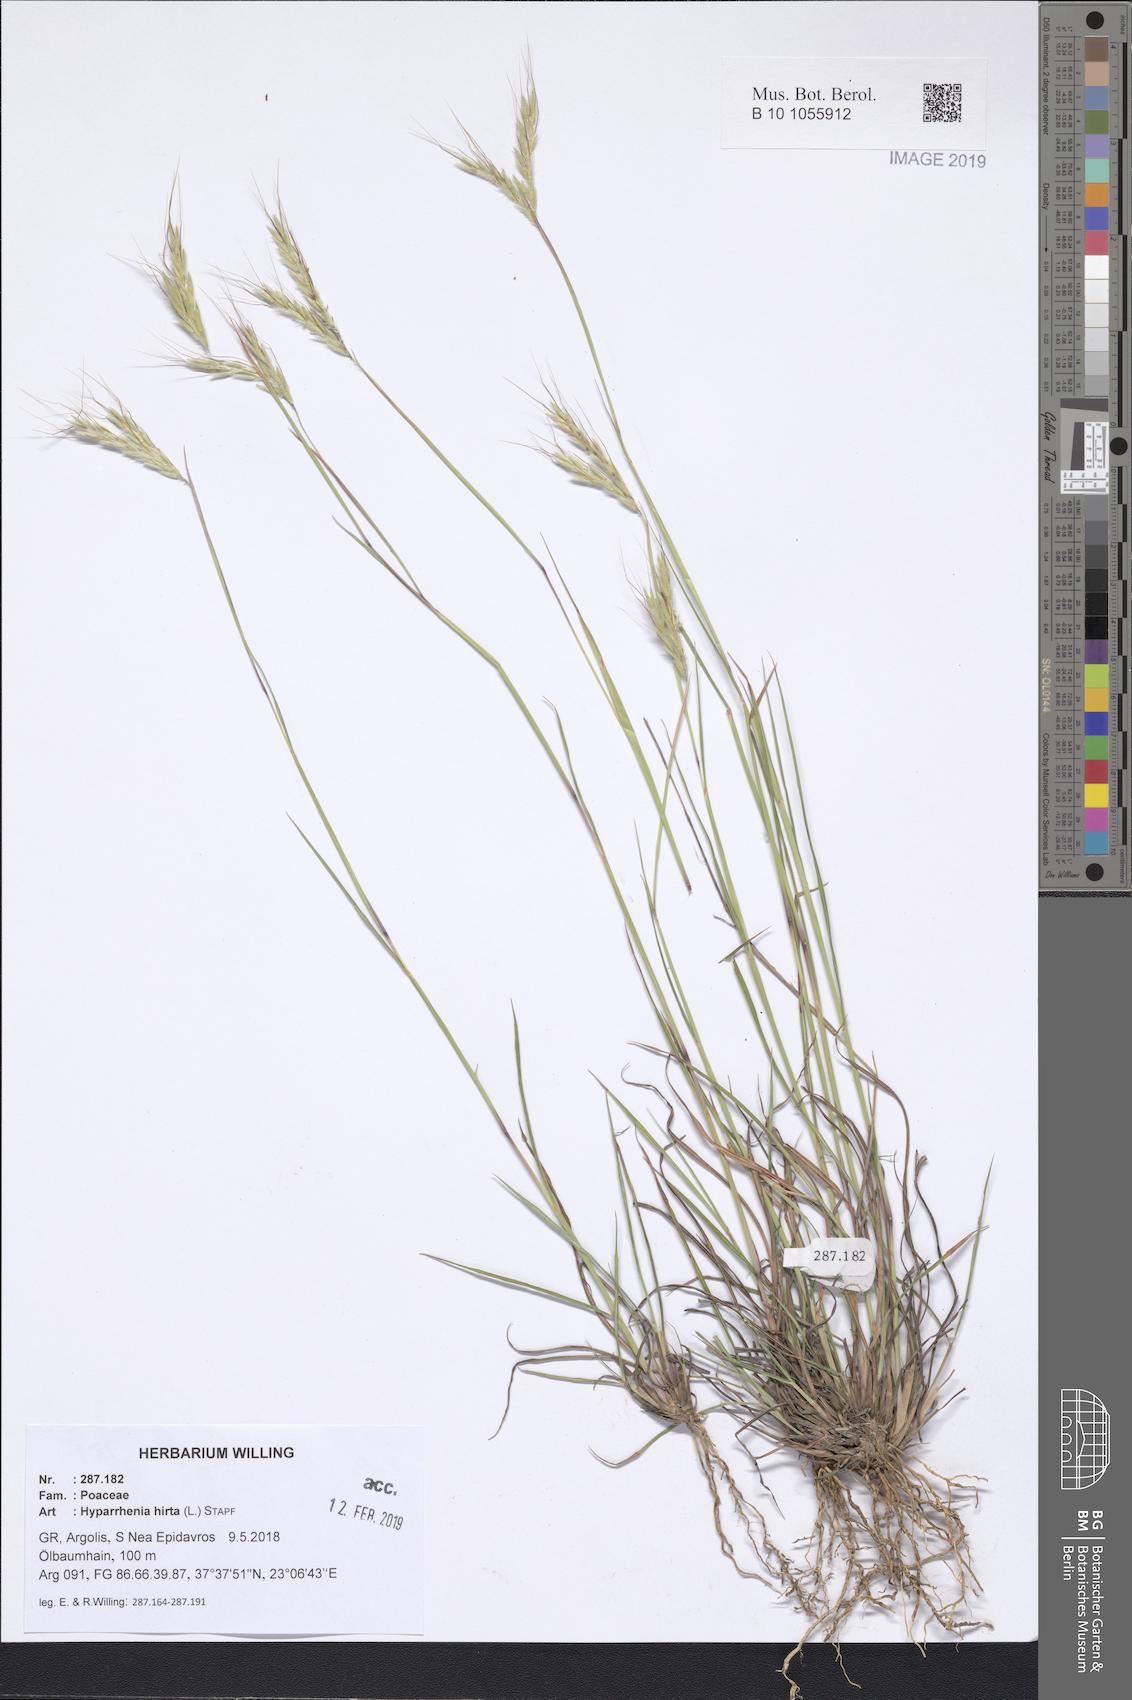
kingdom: Plantae
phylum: Tracheophyta
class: Liliopsida
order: Poales
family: Poaceae
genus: Hyparrhenia
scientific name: Hyparrhenia hirta
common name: Thatching grass
